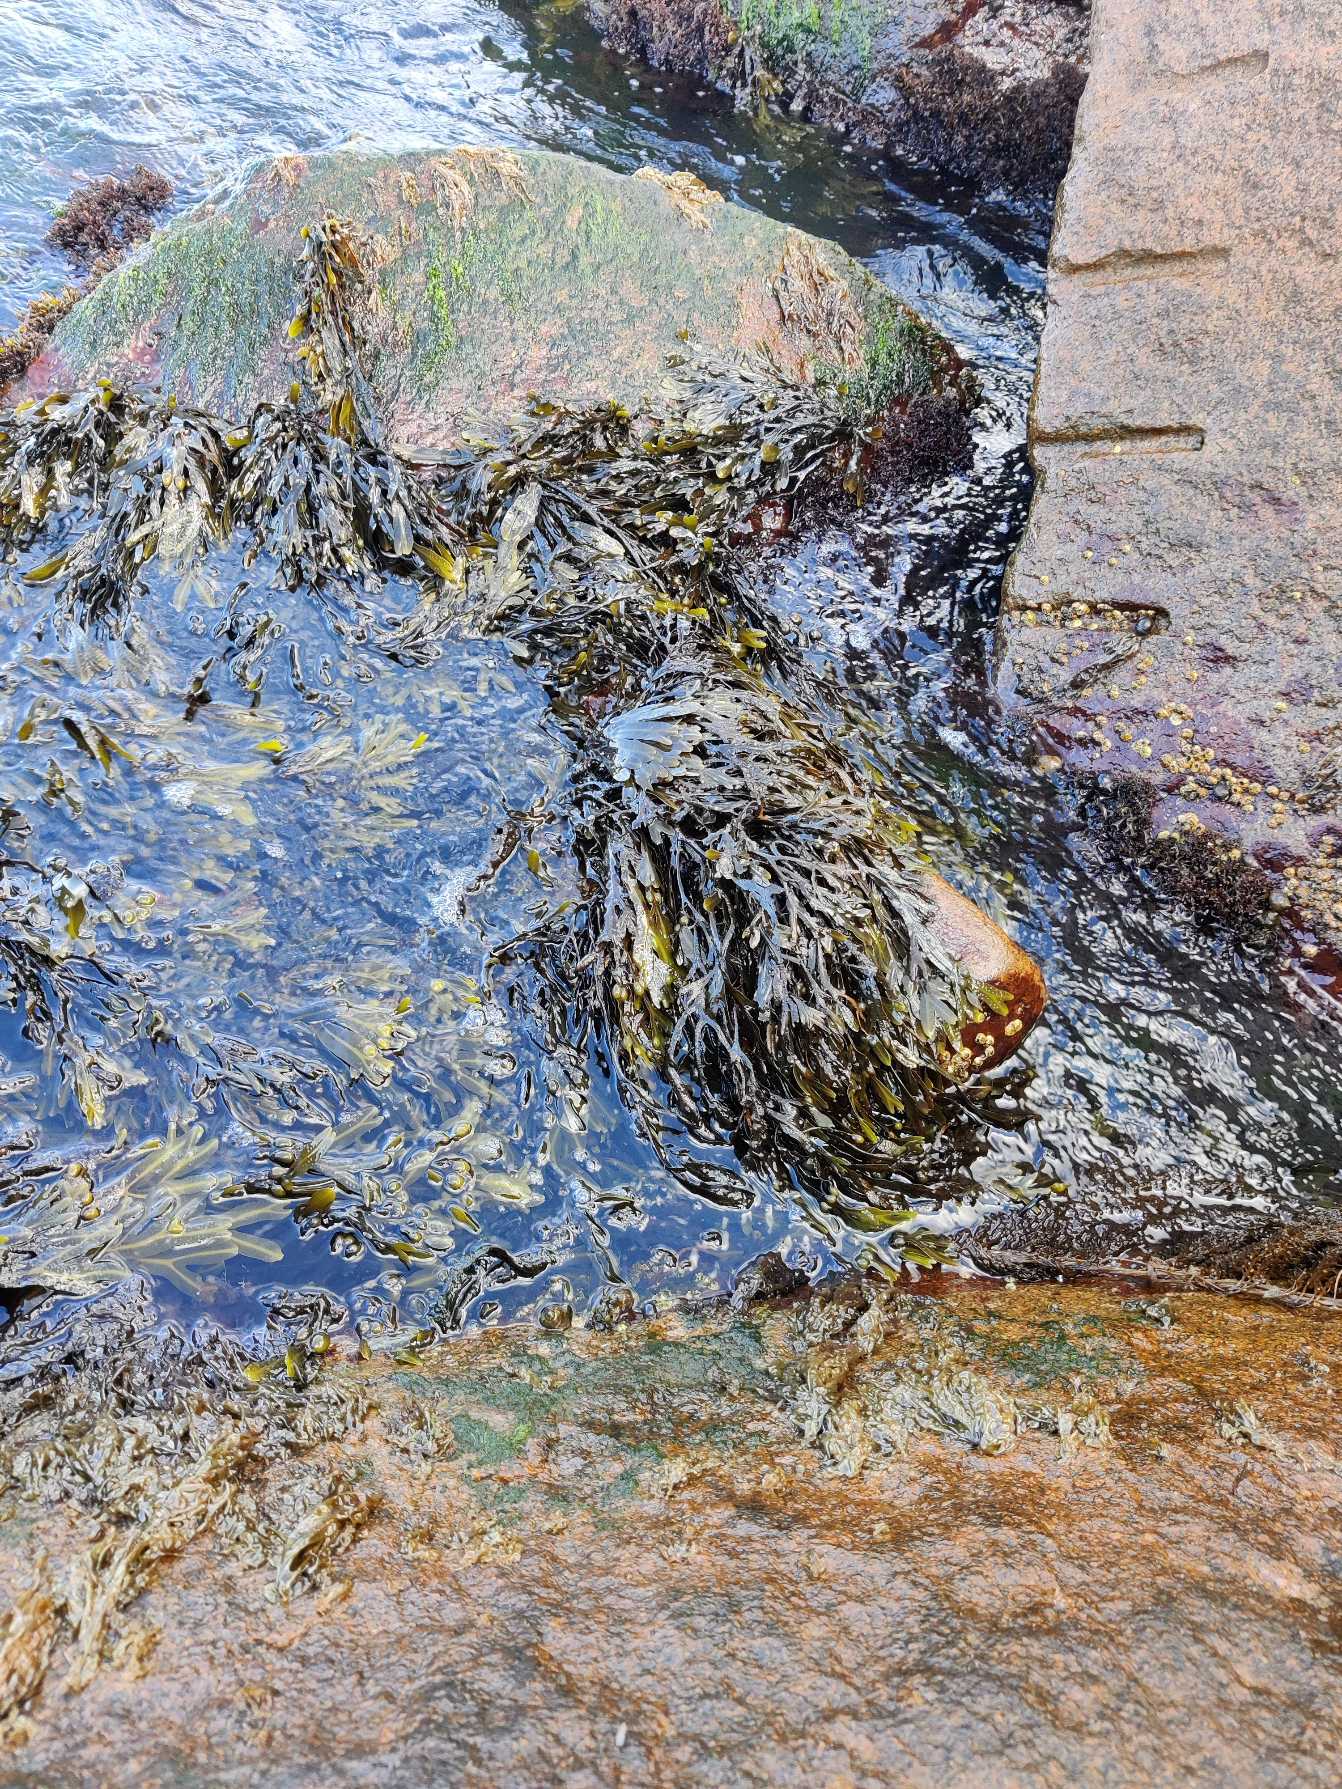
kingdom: Chromista
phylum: Ochrophyta
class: Phaeophyceae
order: Fucales
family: Fucaceae
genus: Fucus
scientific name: Fucus vesiculosus
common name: Blæretang
